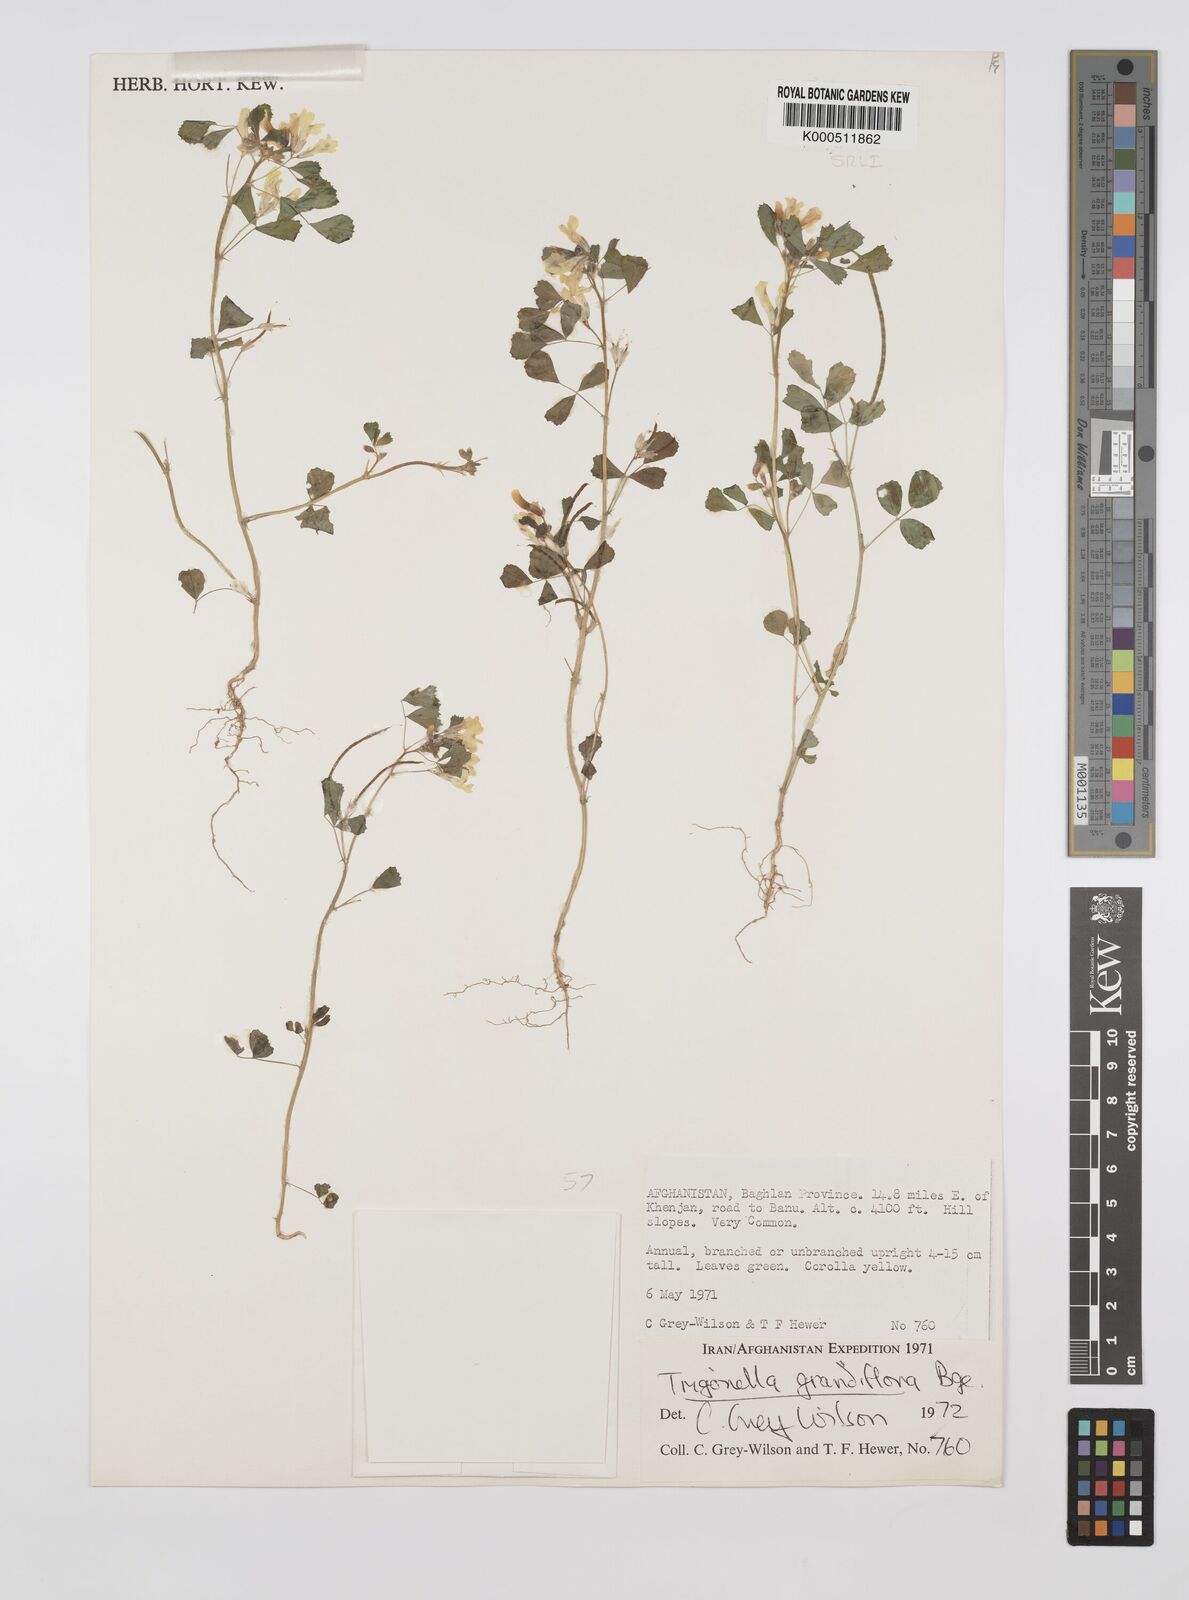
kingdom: Plantae
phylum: Tracheophyta
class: Magnoliopsida
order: Fabales
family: Fabaceae
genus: Trigonella
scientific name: Trigonella grandiflora
